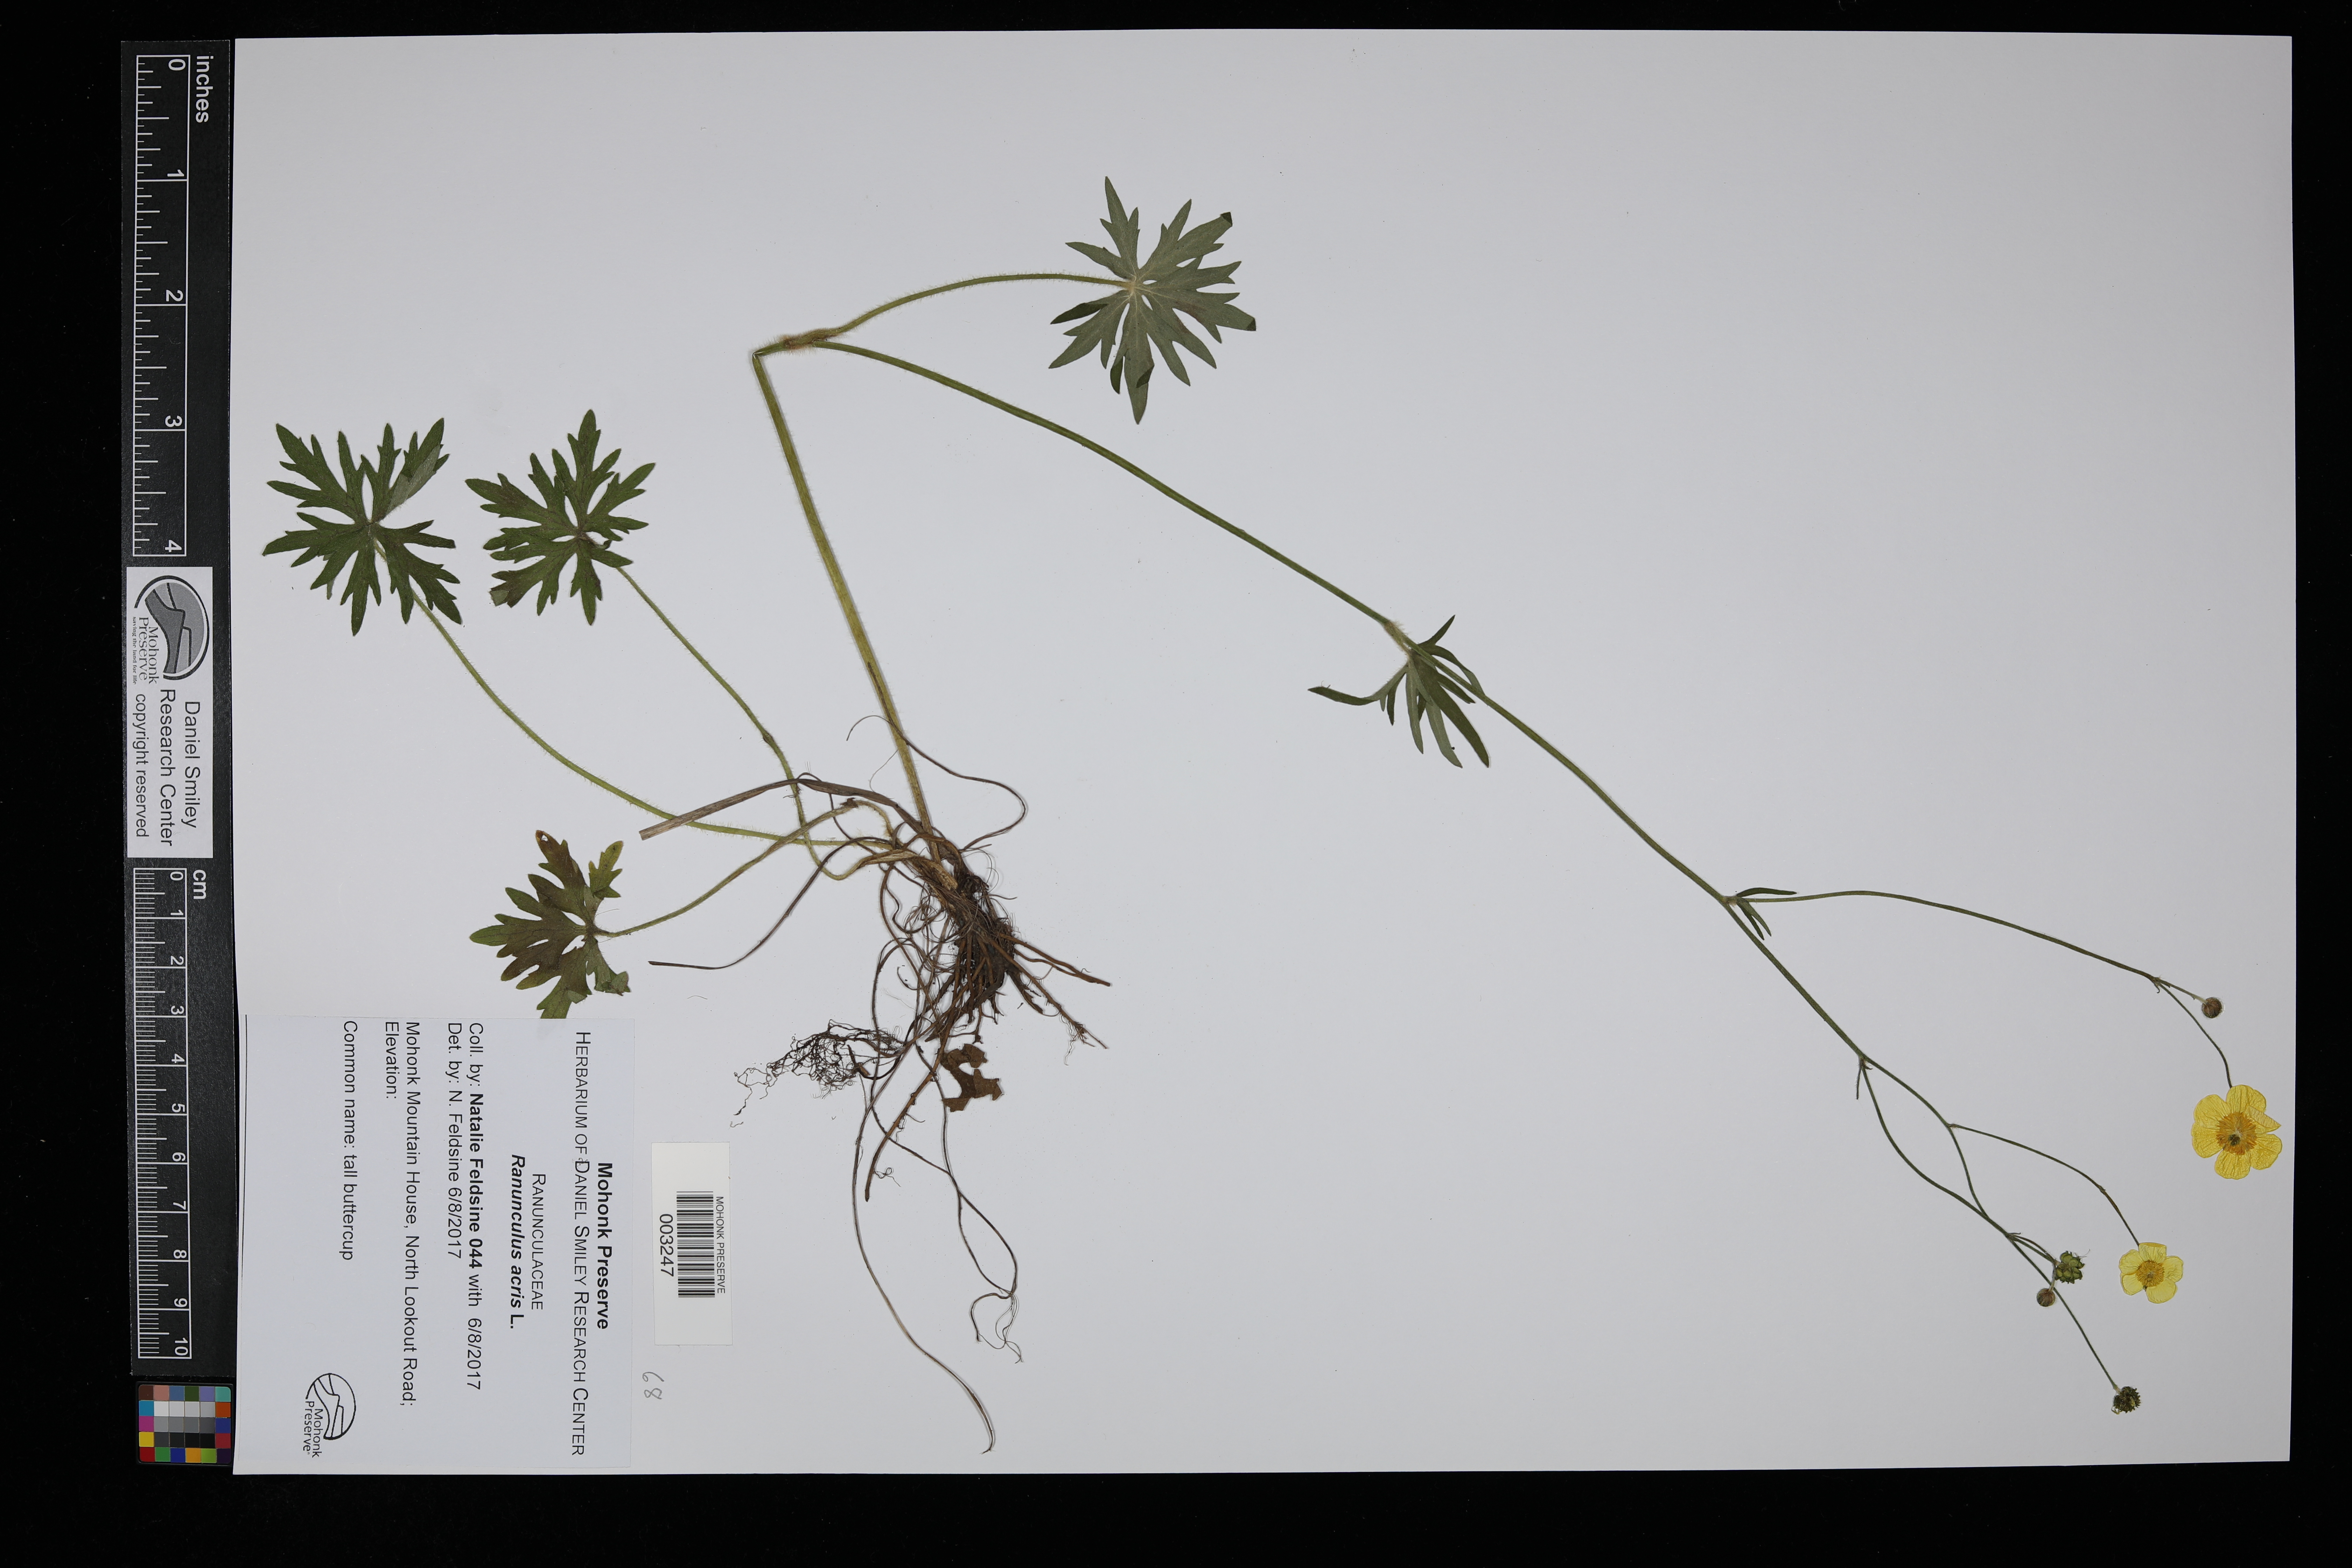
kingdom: Plantae
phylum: Tracheophyta
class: Magnoliopsida
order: Ranunculales
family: Ranunculaceae
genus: Ranunculus
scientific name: Ranunculus acris
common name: Meadow buttercup
